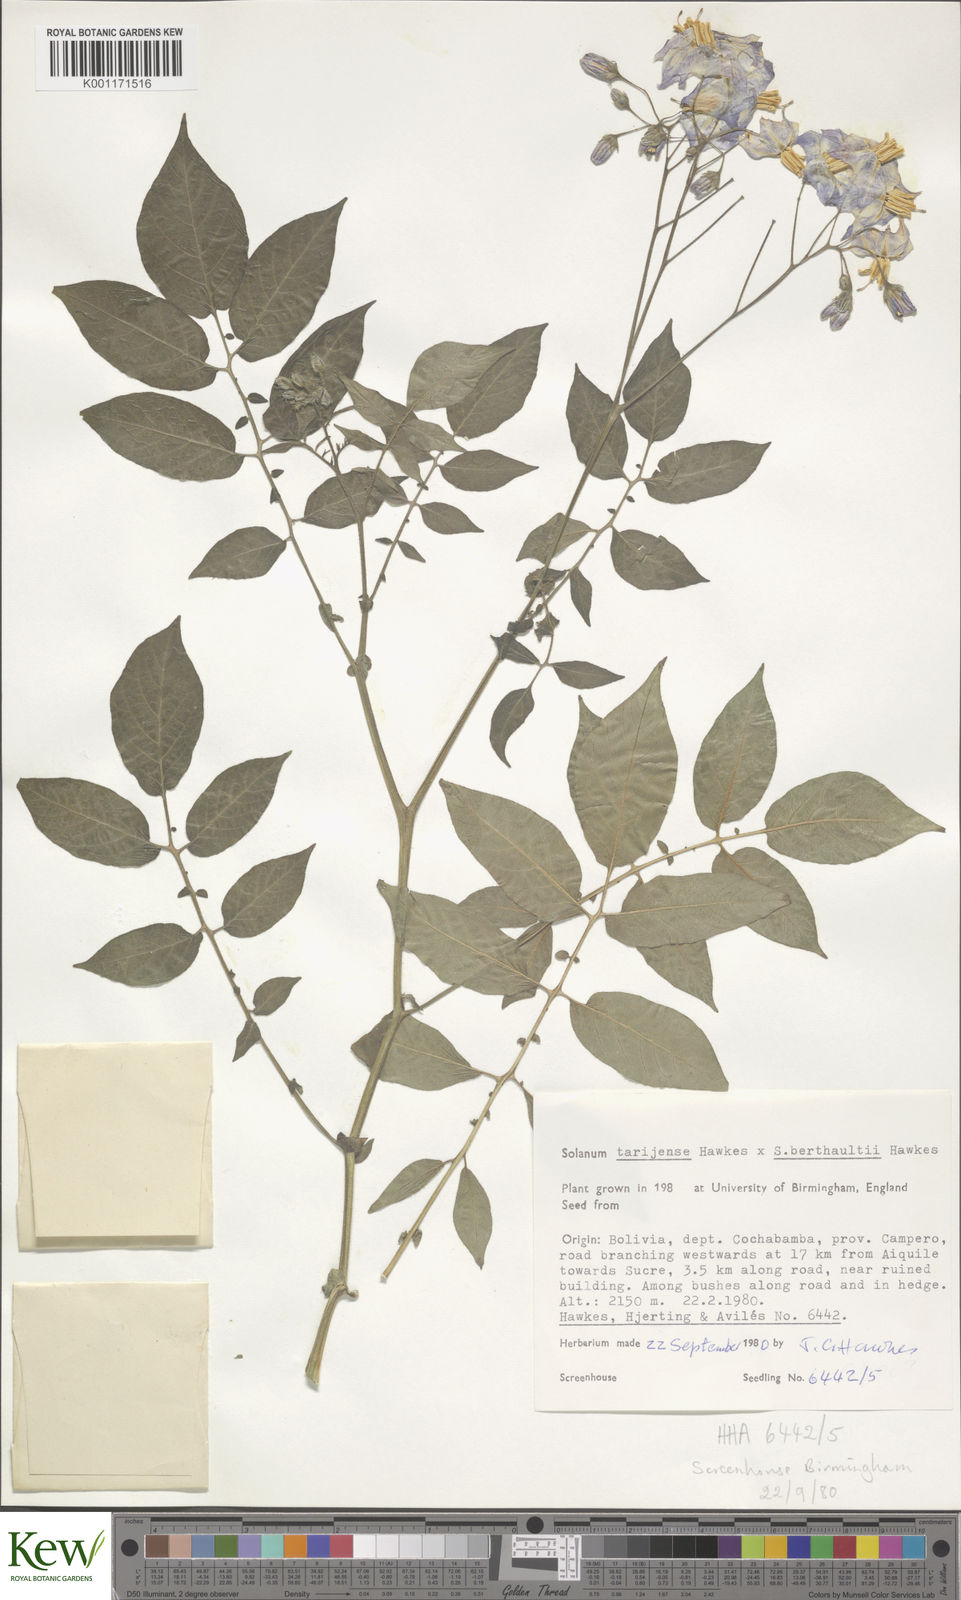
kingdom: Plantae
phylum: Tracheophyta
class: Magnoliopsida
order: Solanales
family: Solanaceae
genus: Solanum
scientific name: Solanum tarijense
